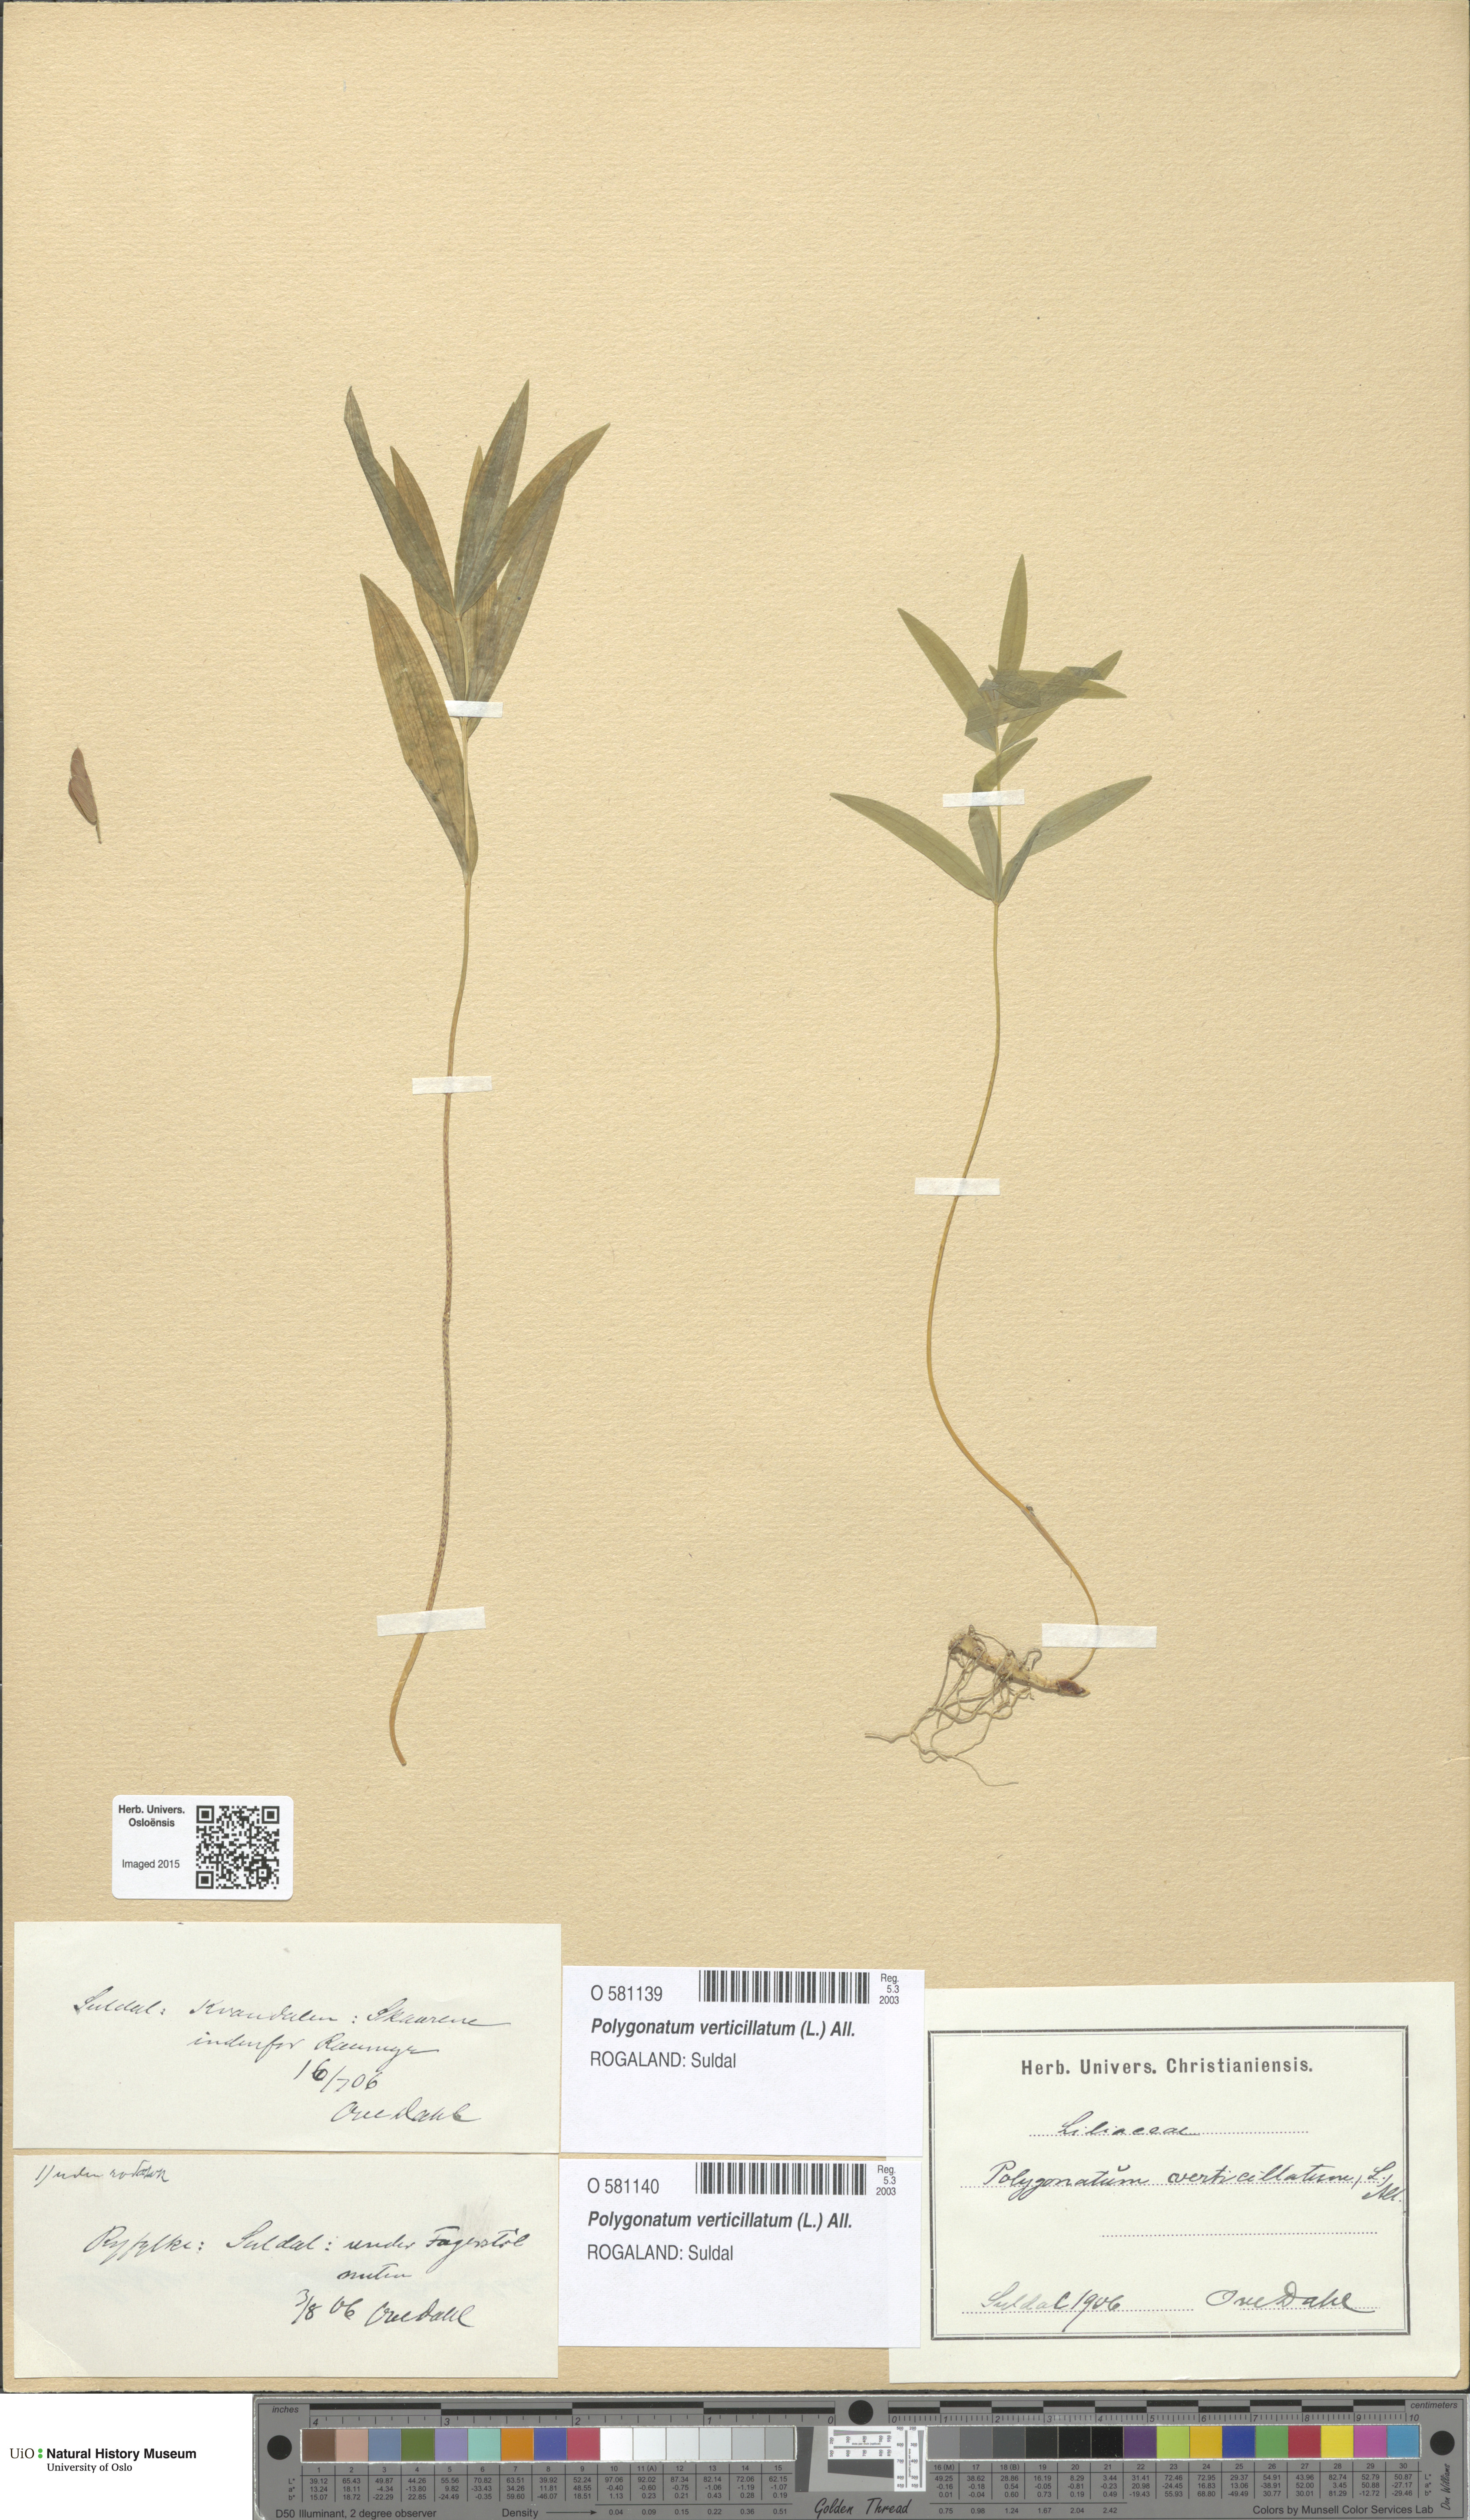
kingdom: Plantae
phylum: Tracheophyta
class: Liliopsida
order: Asparagales
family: Asparagaceae
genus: Polygonatum
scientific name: Polygonatum verticillatum
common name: Whorled solomon's-seal
